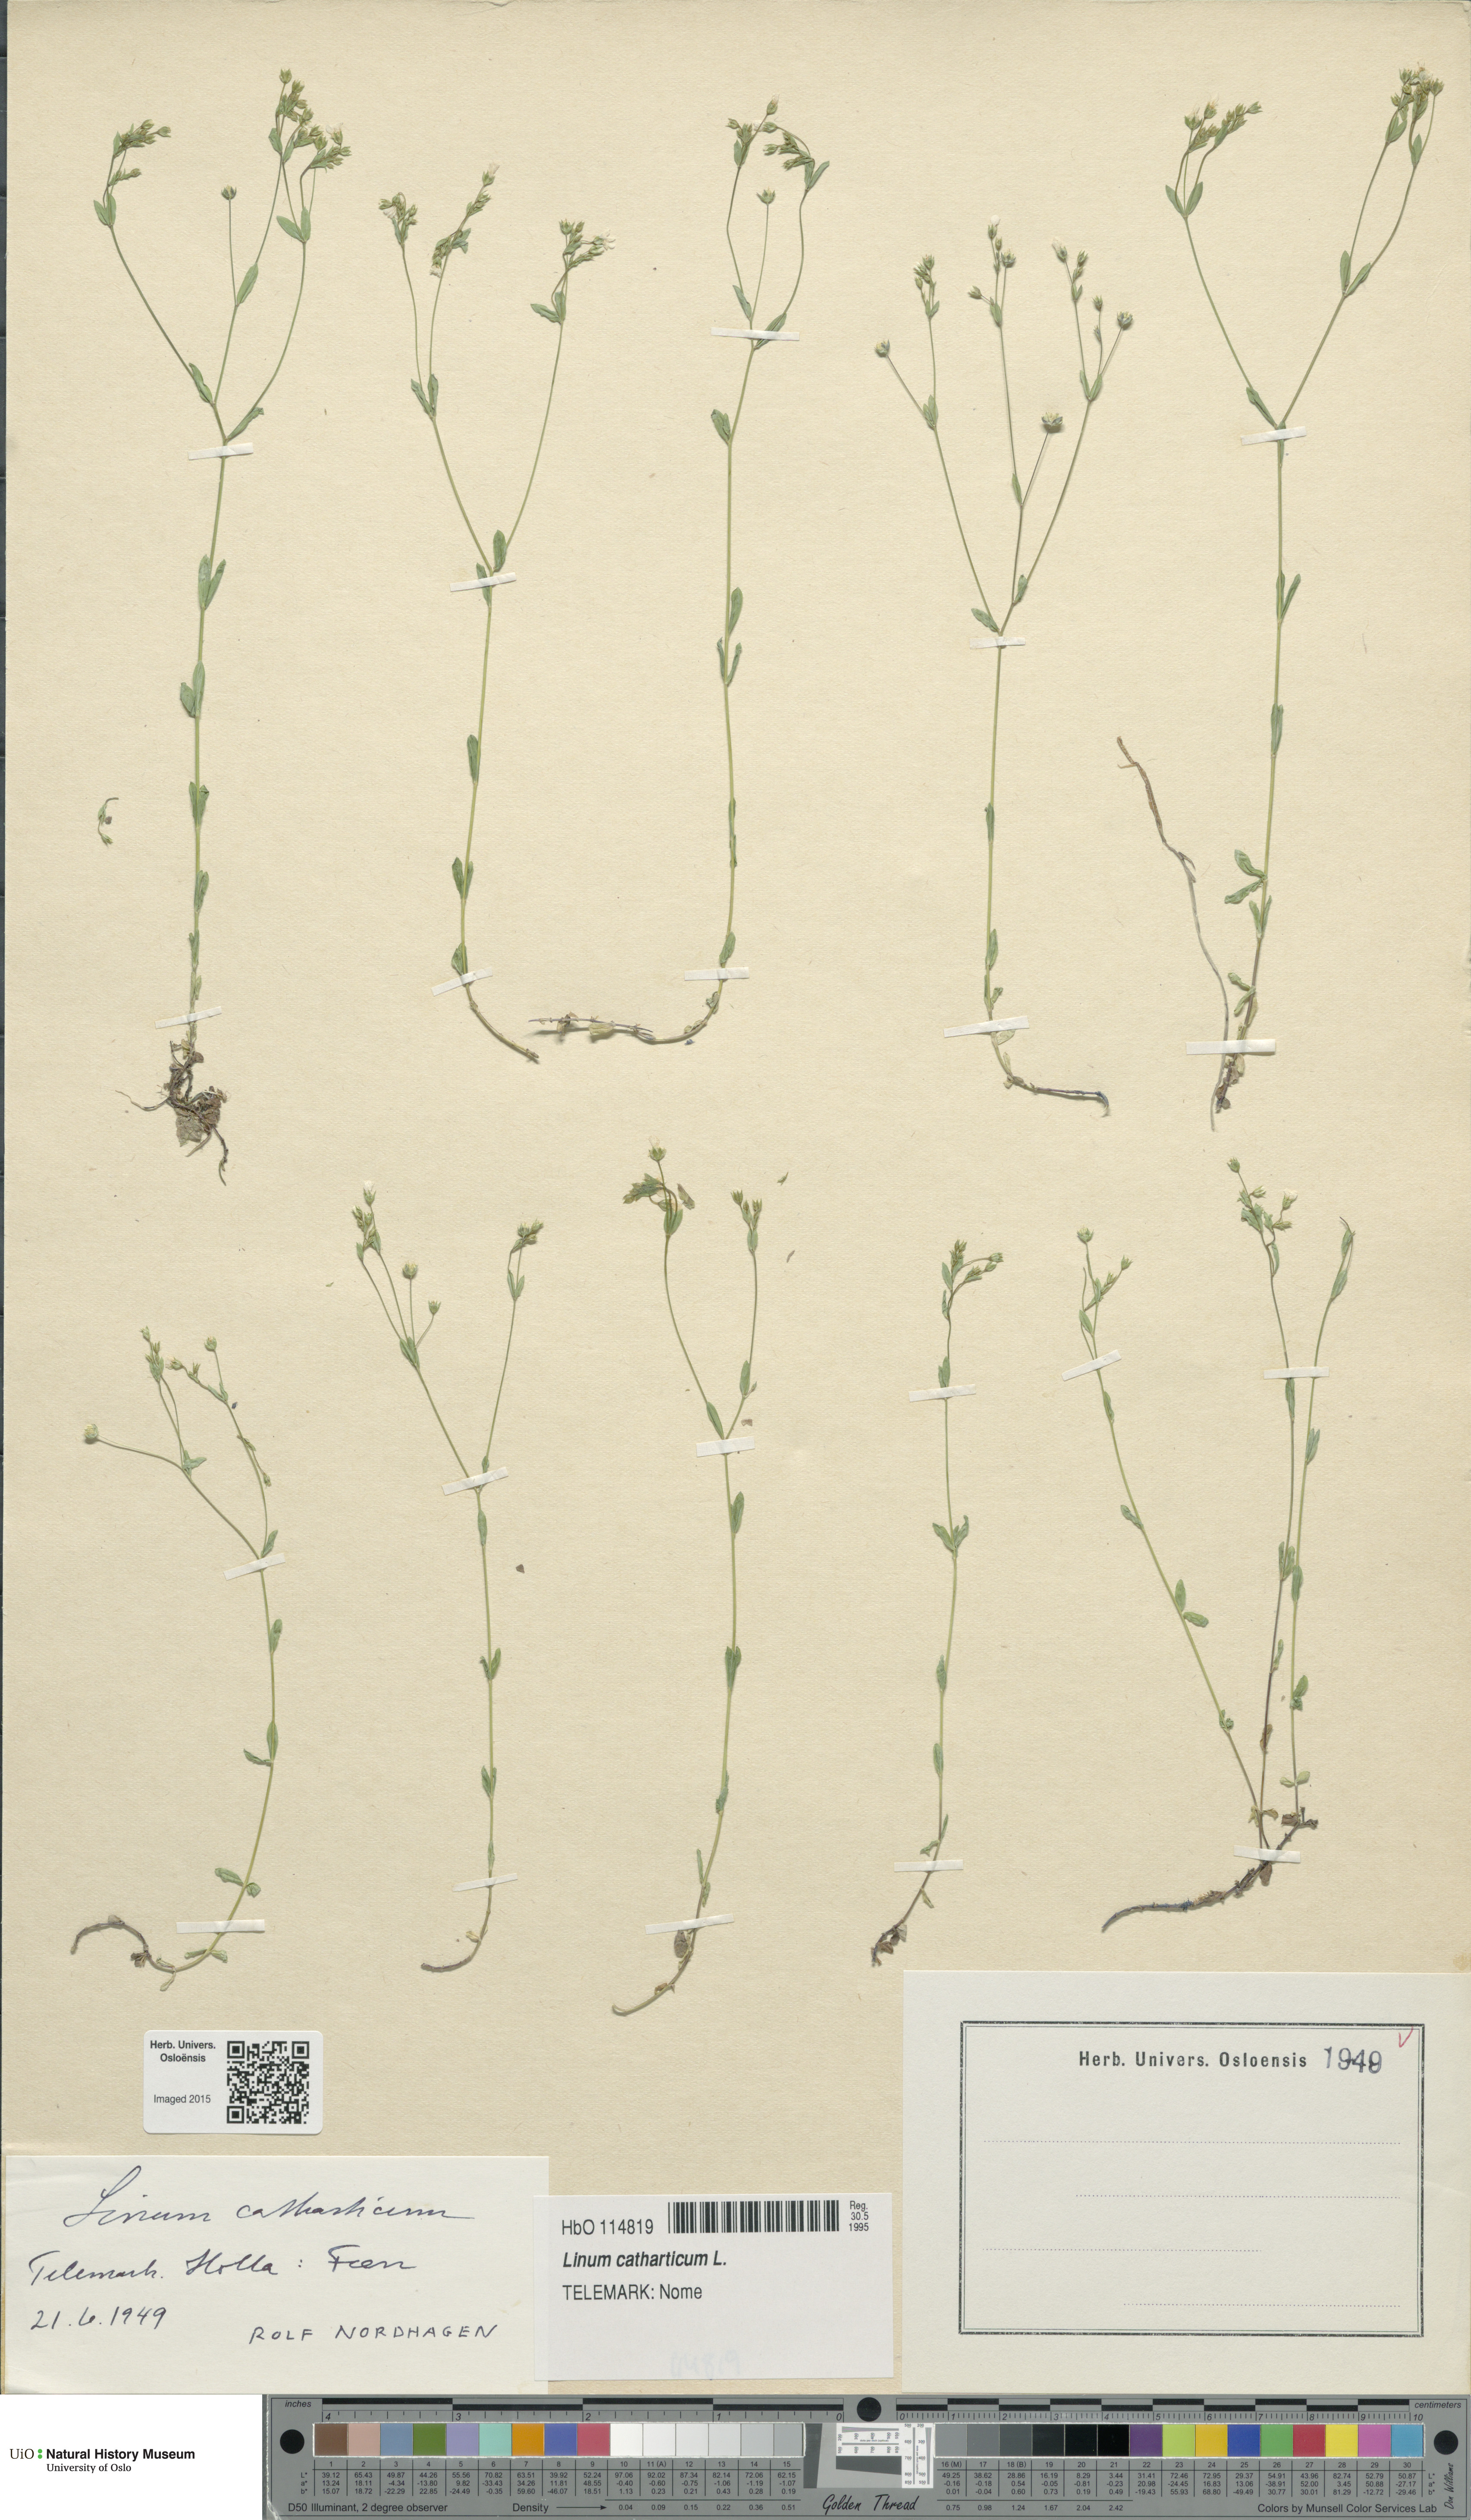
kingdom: Plantae
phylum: Tracheophyta
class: Magnoliopsida
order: Malpighiales
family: Linaceae
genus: Linum
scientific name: Linum catharticum
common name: Fairy flax
